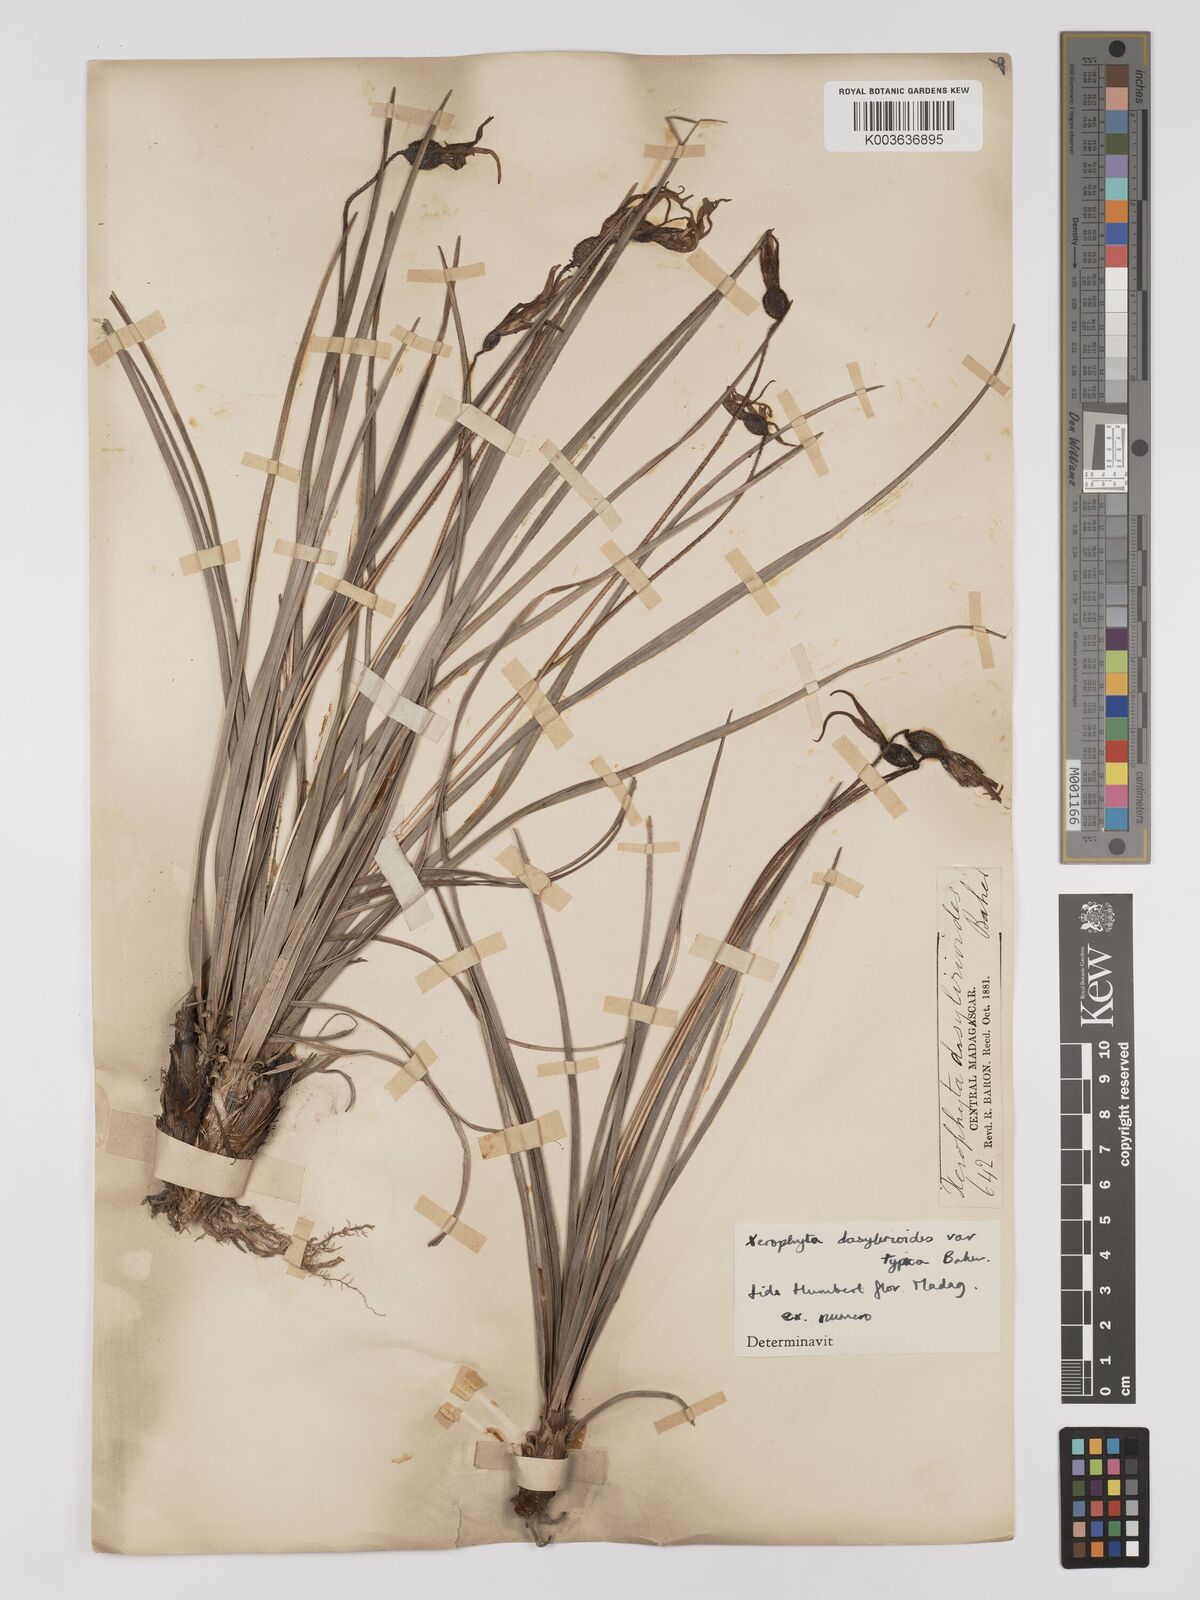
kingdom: Plantae
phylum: Tracheophyta
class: Liliopsida
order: Pandanales
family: Velloziaceae
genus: Xerophyta
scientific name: Xerophyta dasylirioides
